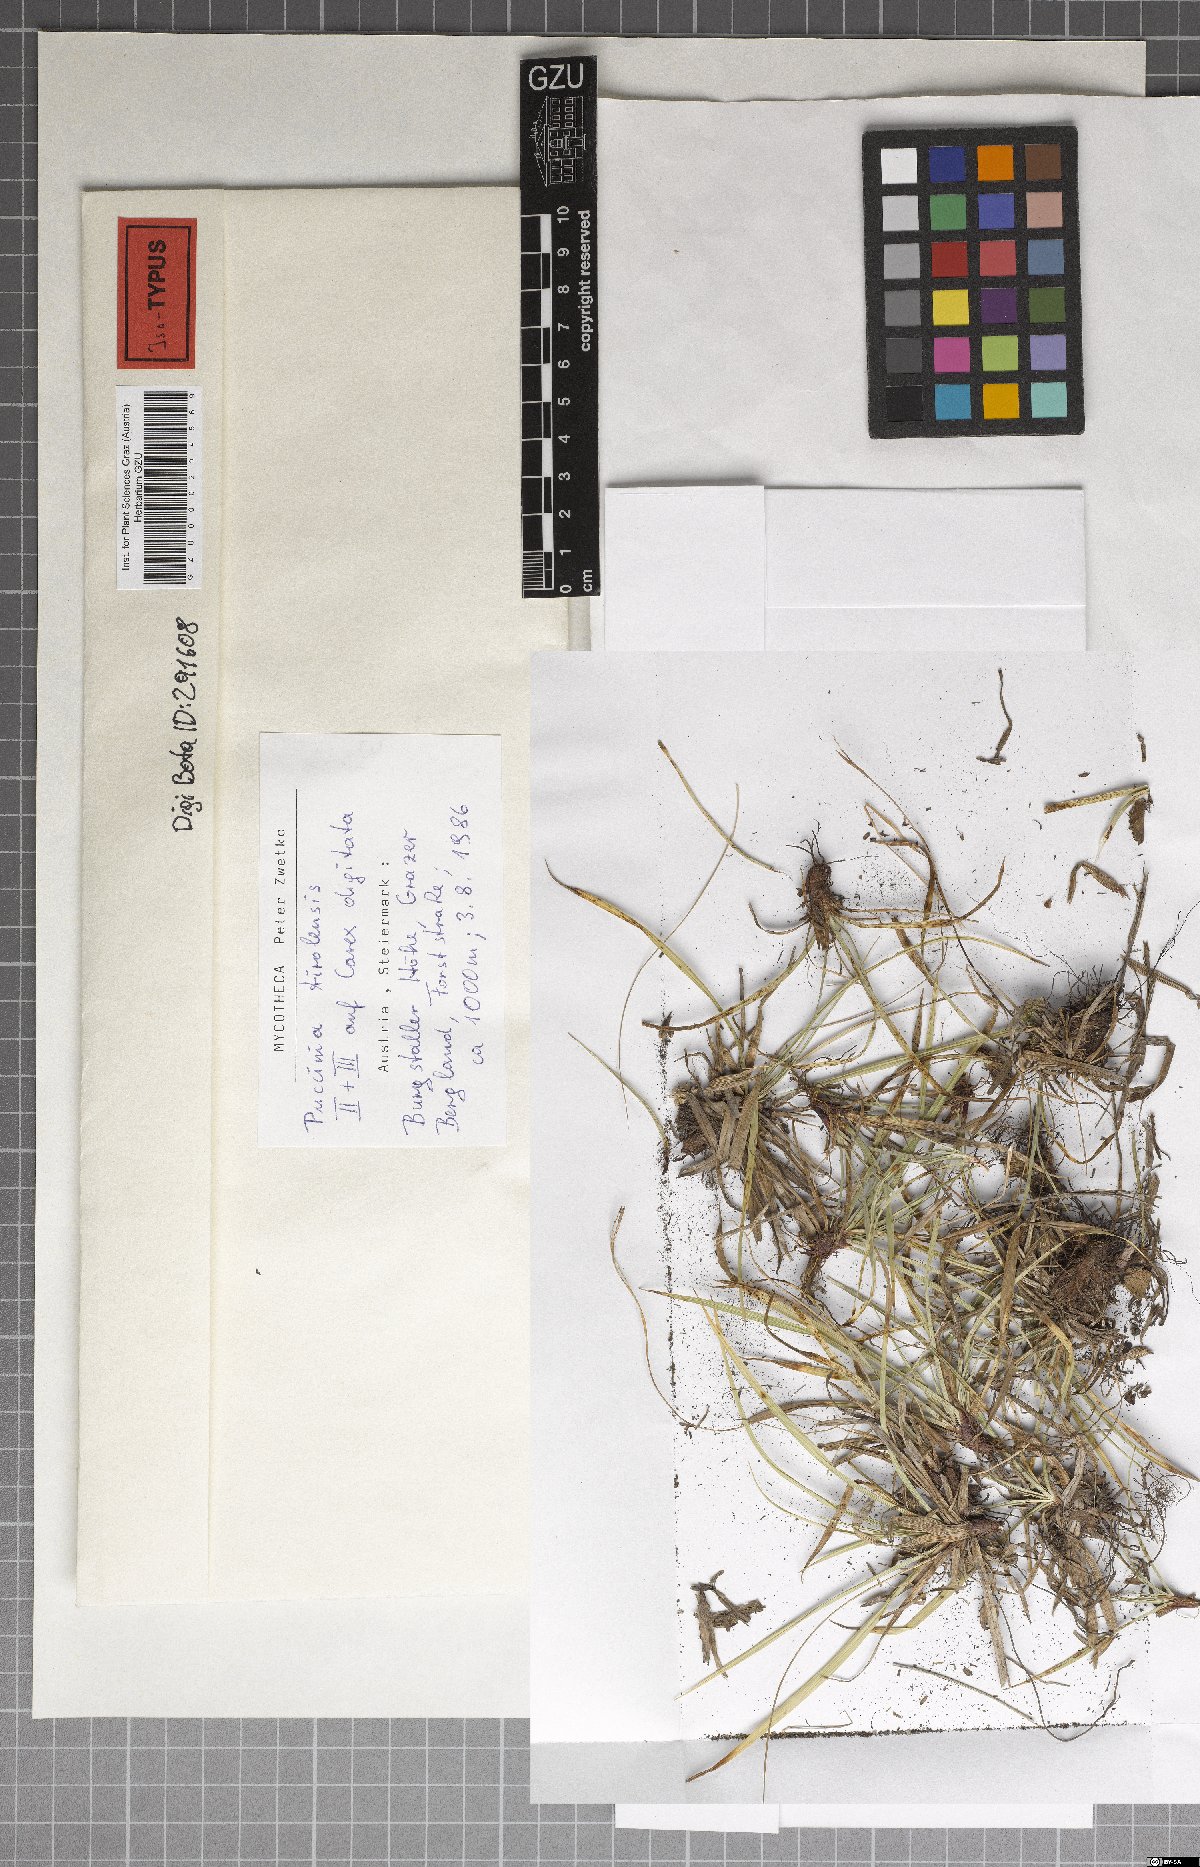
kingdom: Fungi
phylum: Basidiomycota
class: Pucciniomycetes
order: Pucciniales
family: Pucciniaceae
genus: Puccinia
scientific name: Puccinia tirolensis
